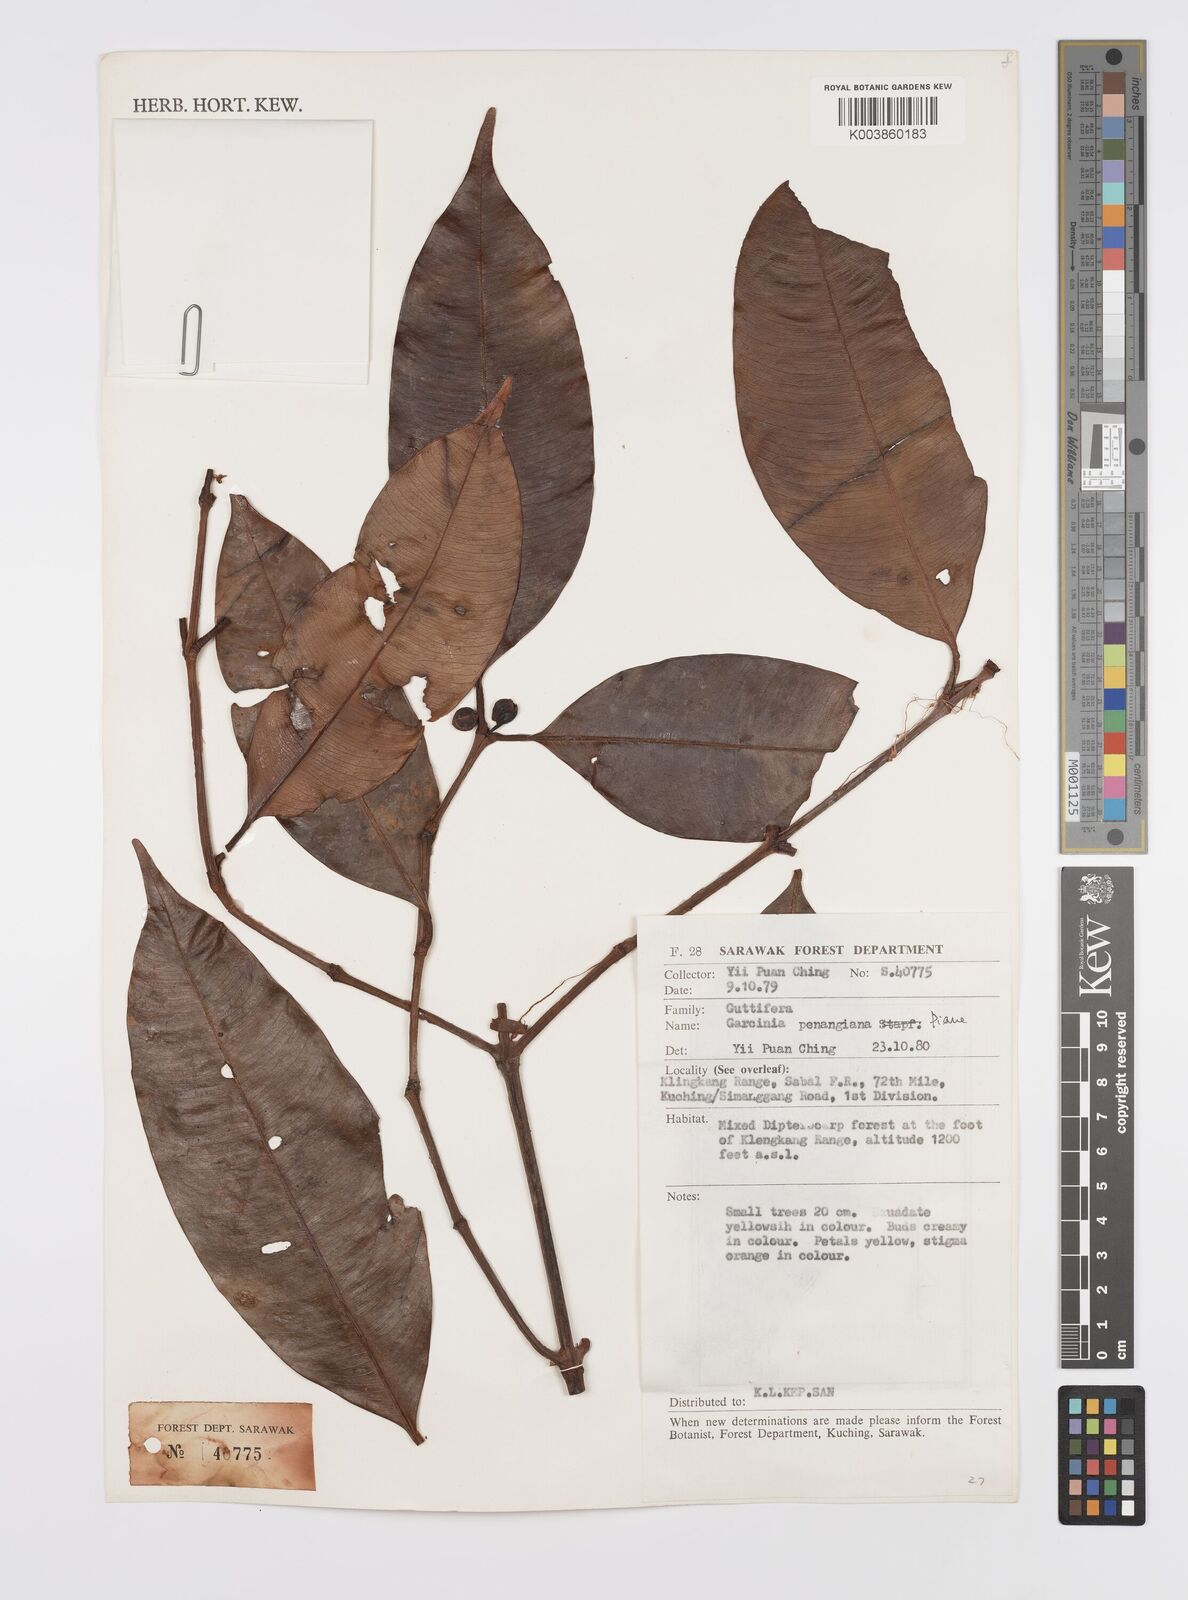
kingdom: Plantae
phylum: Tracheophyta
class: Magnoliopsida
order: Malpighiales
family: Clusiaceae
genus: Garcinia
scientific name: Garcinia penangiana
